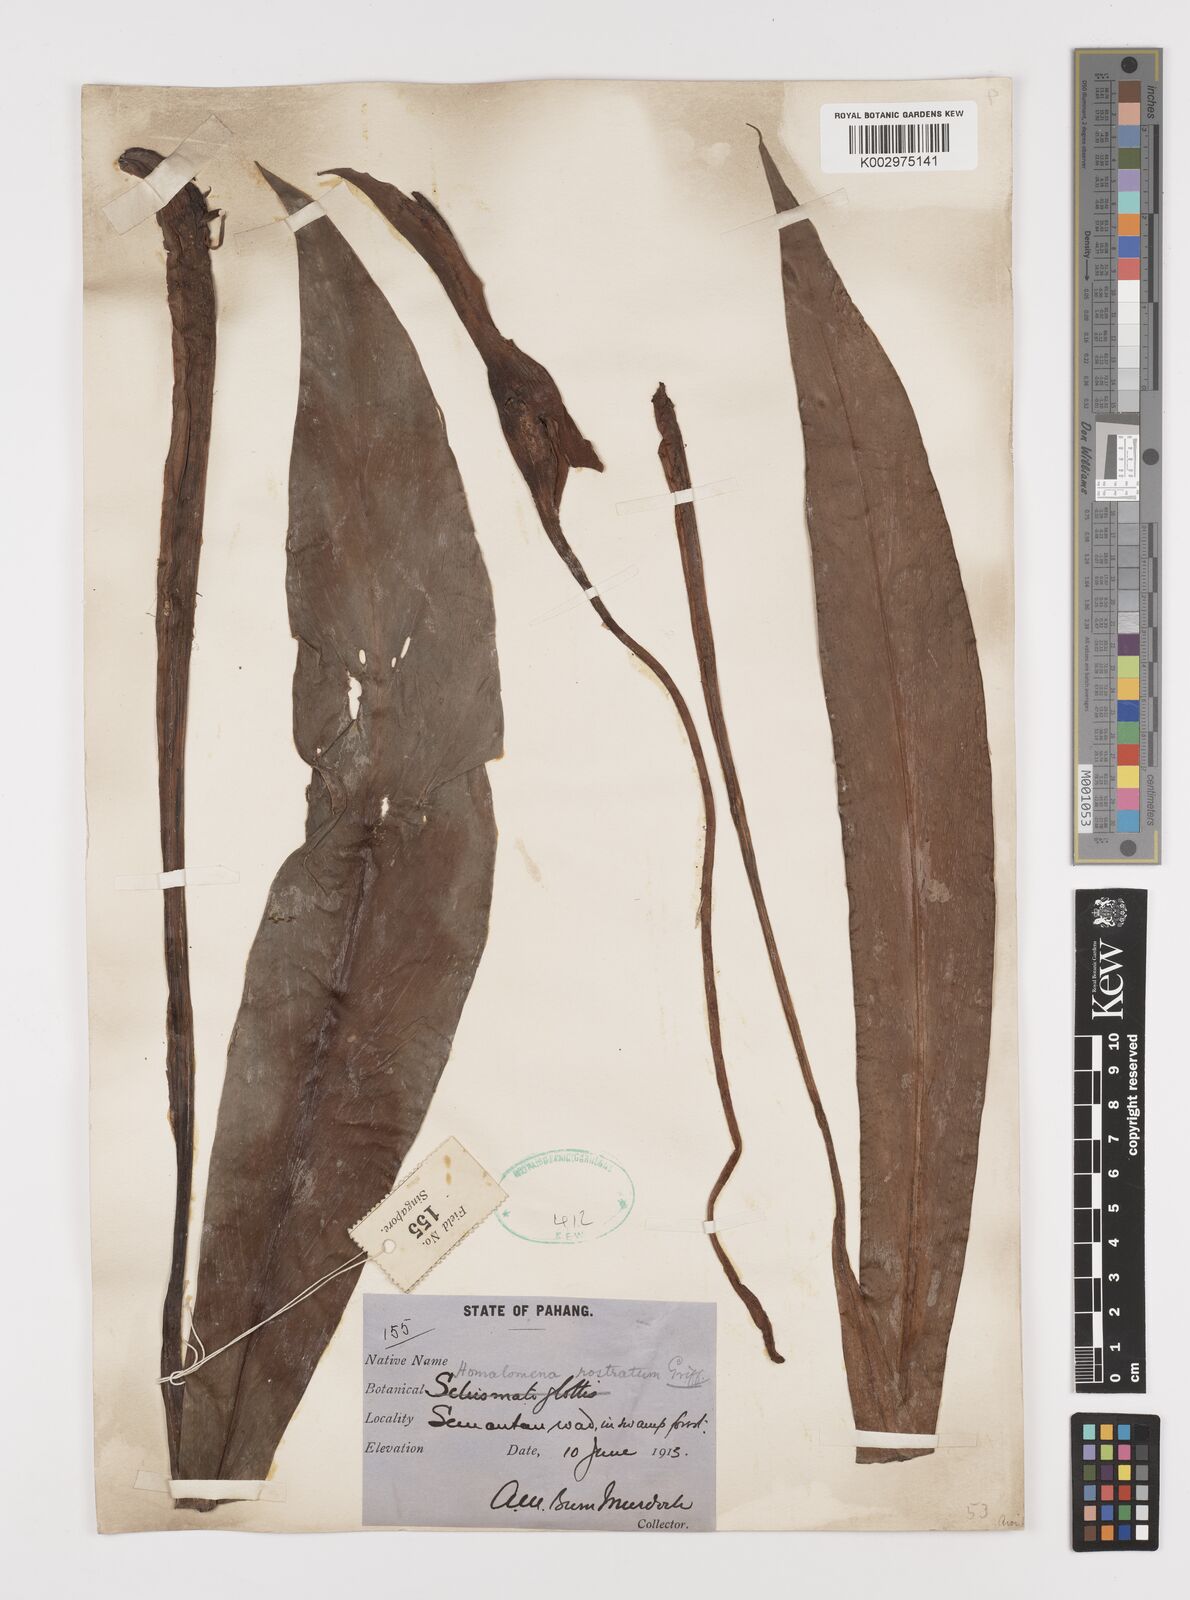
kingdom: Plantae
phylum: Tracheophyta
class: Liliopsida
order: Alismatales
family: Araceae
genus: Homalomena
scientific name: Homalomena rostrata
